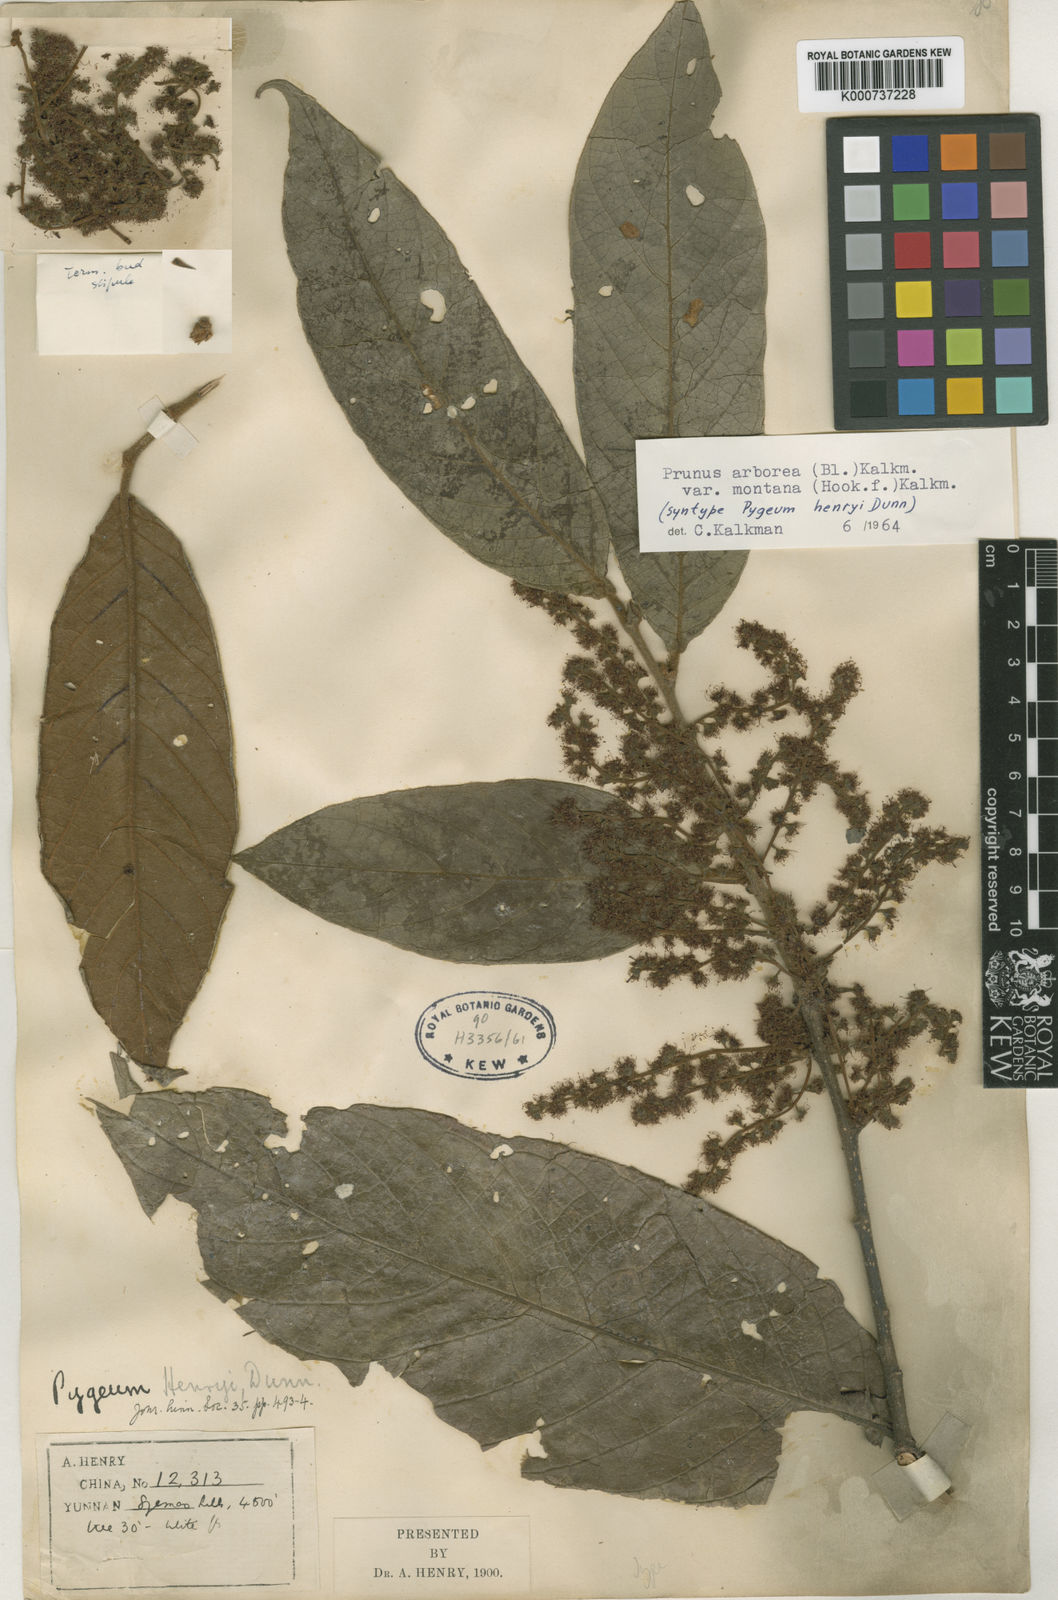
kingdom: Plantae
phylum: Tracheophyta
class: Magnoliopsida
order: Rosales
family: Rosaceae
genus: Prunus
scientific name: Prunus arborea
